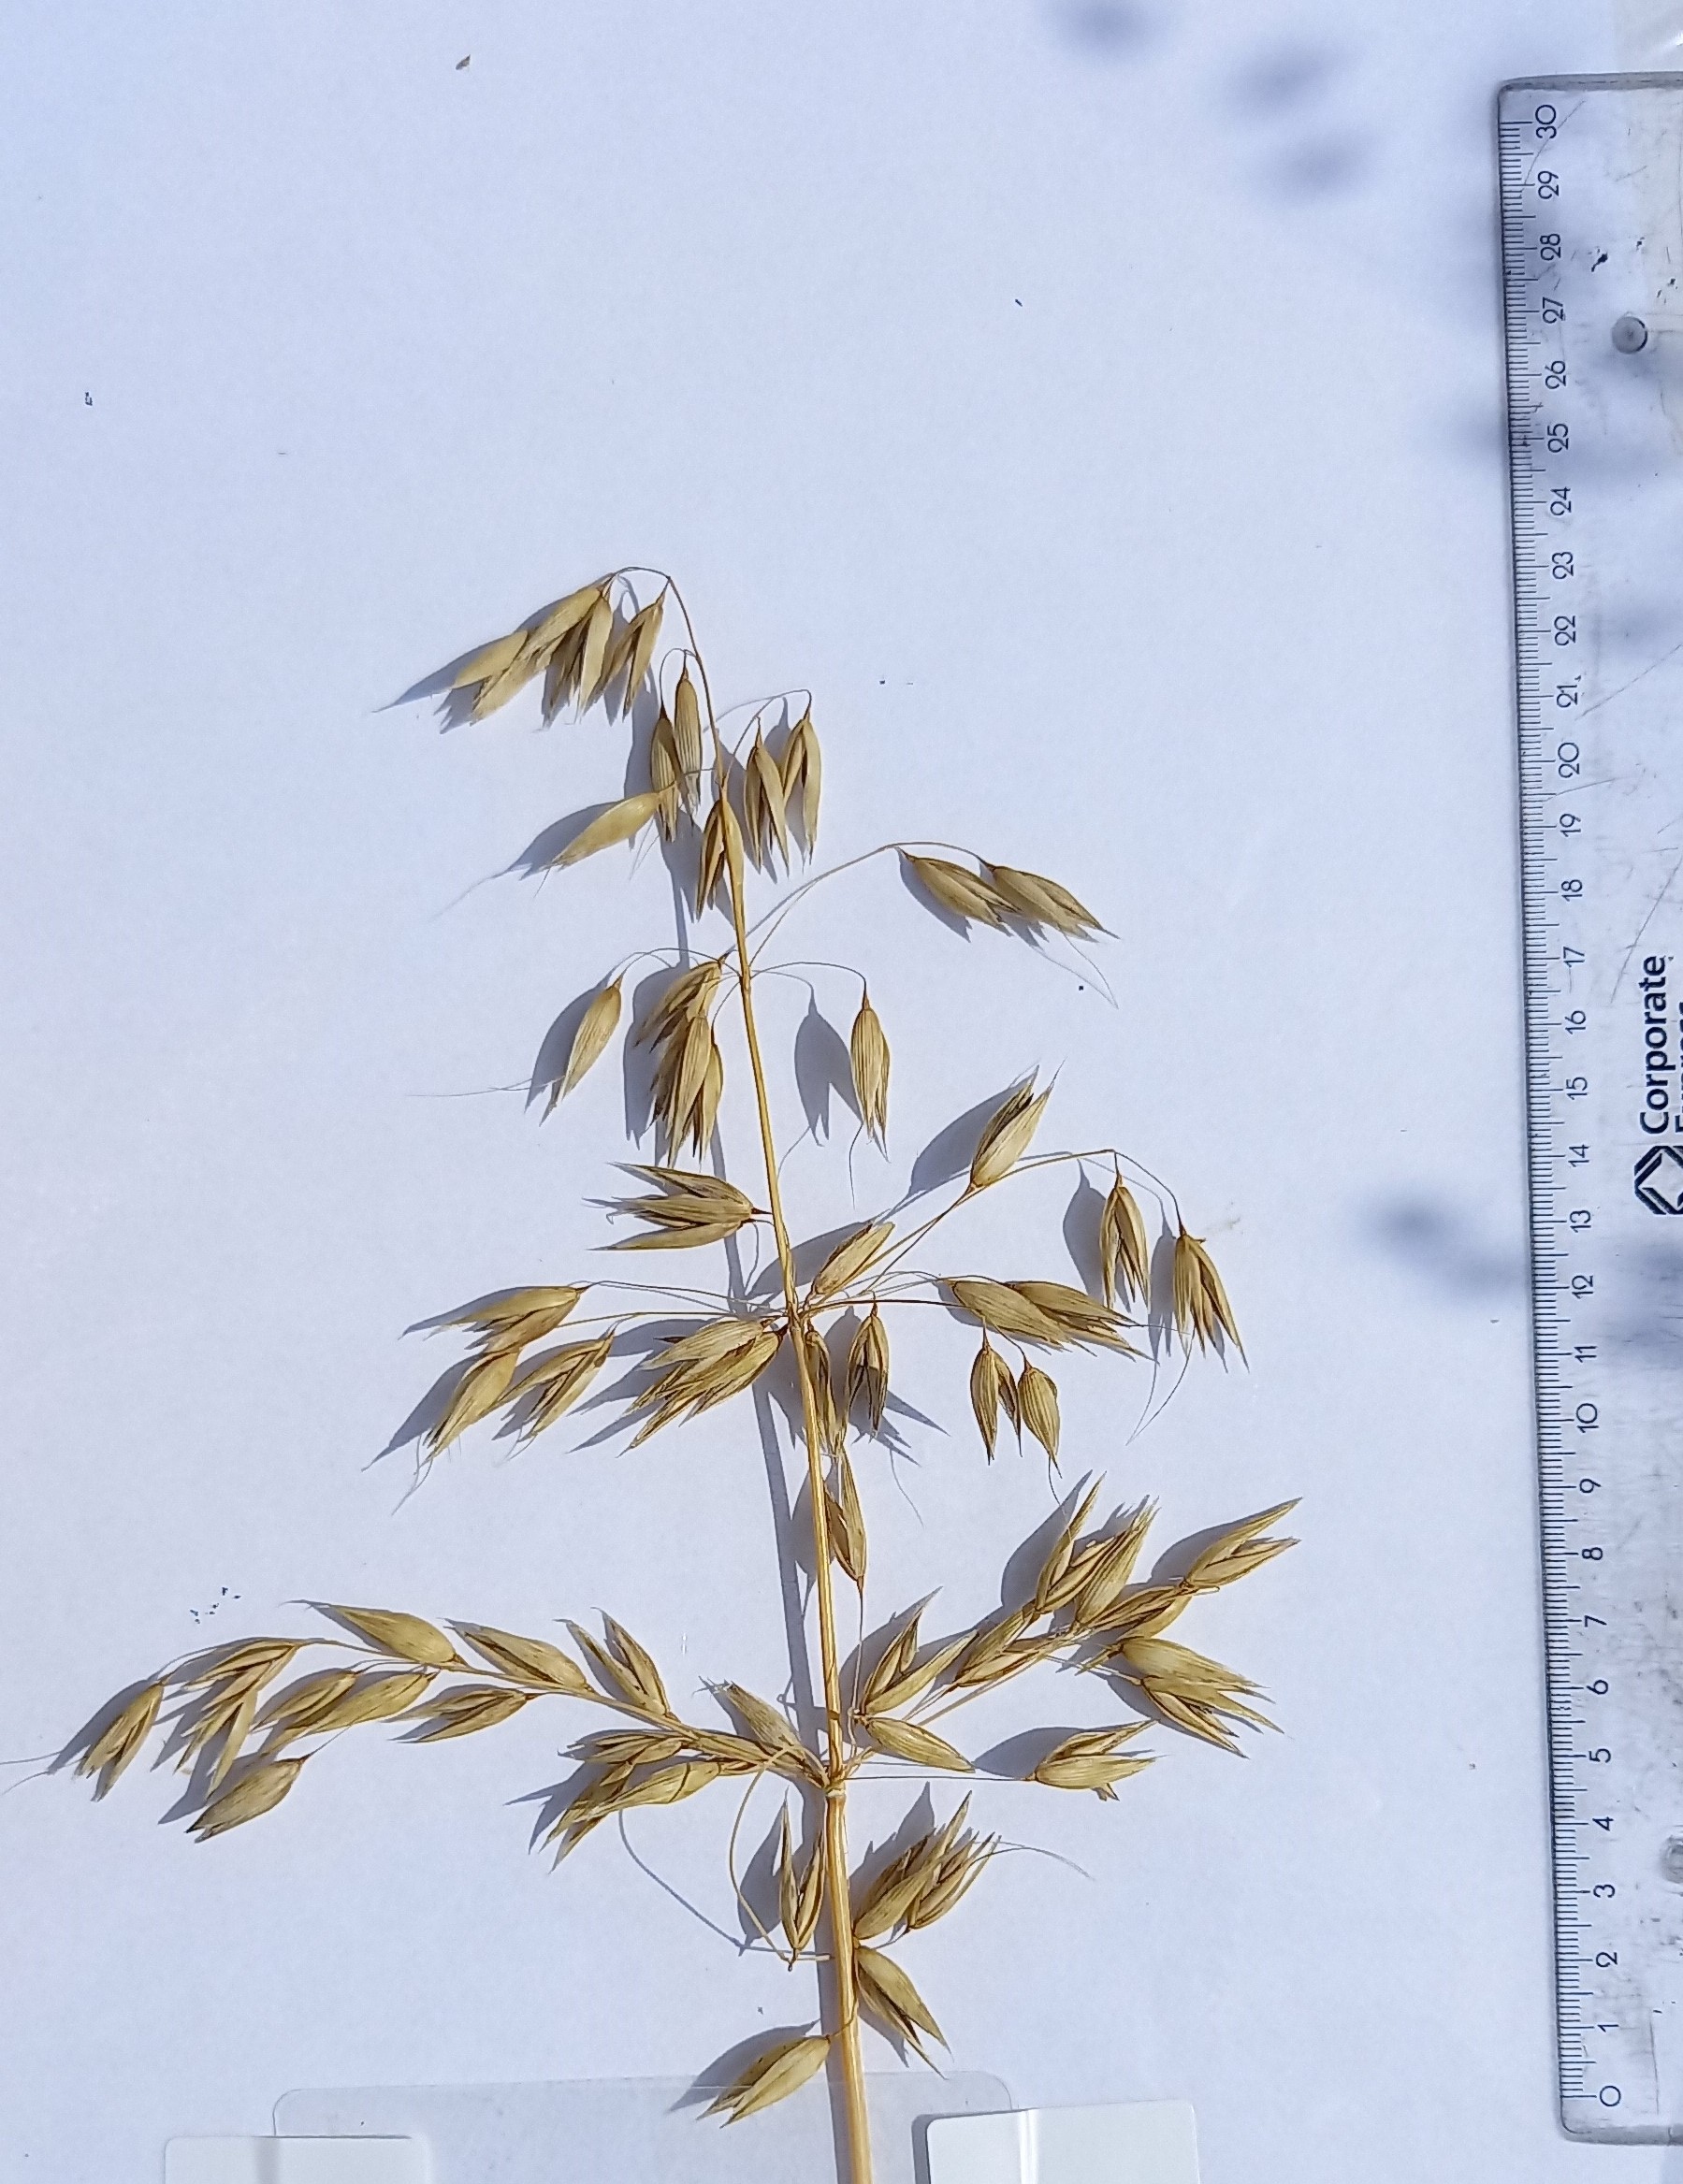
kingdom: Plantae
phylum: Tracheophyta
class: Liliopsida
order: Poales
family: Poaceae
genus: Avena
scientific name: Avena sativa
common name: Oat
